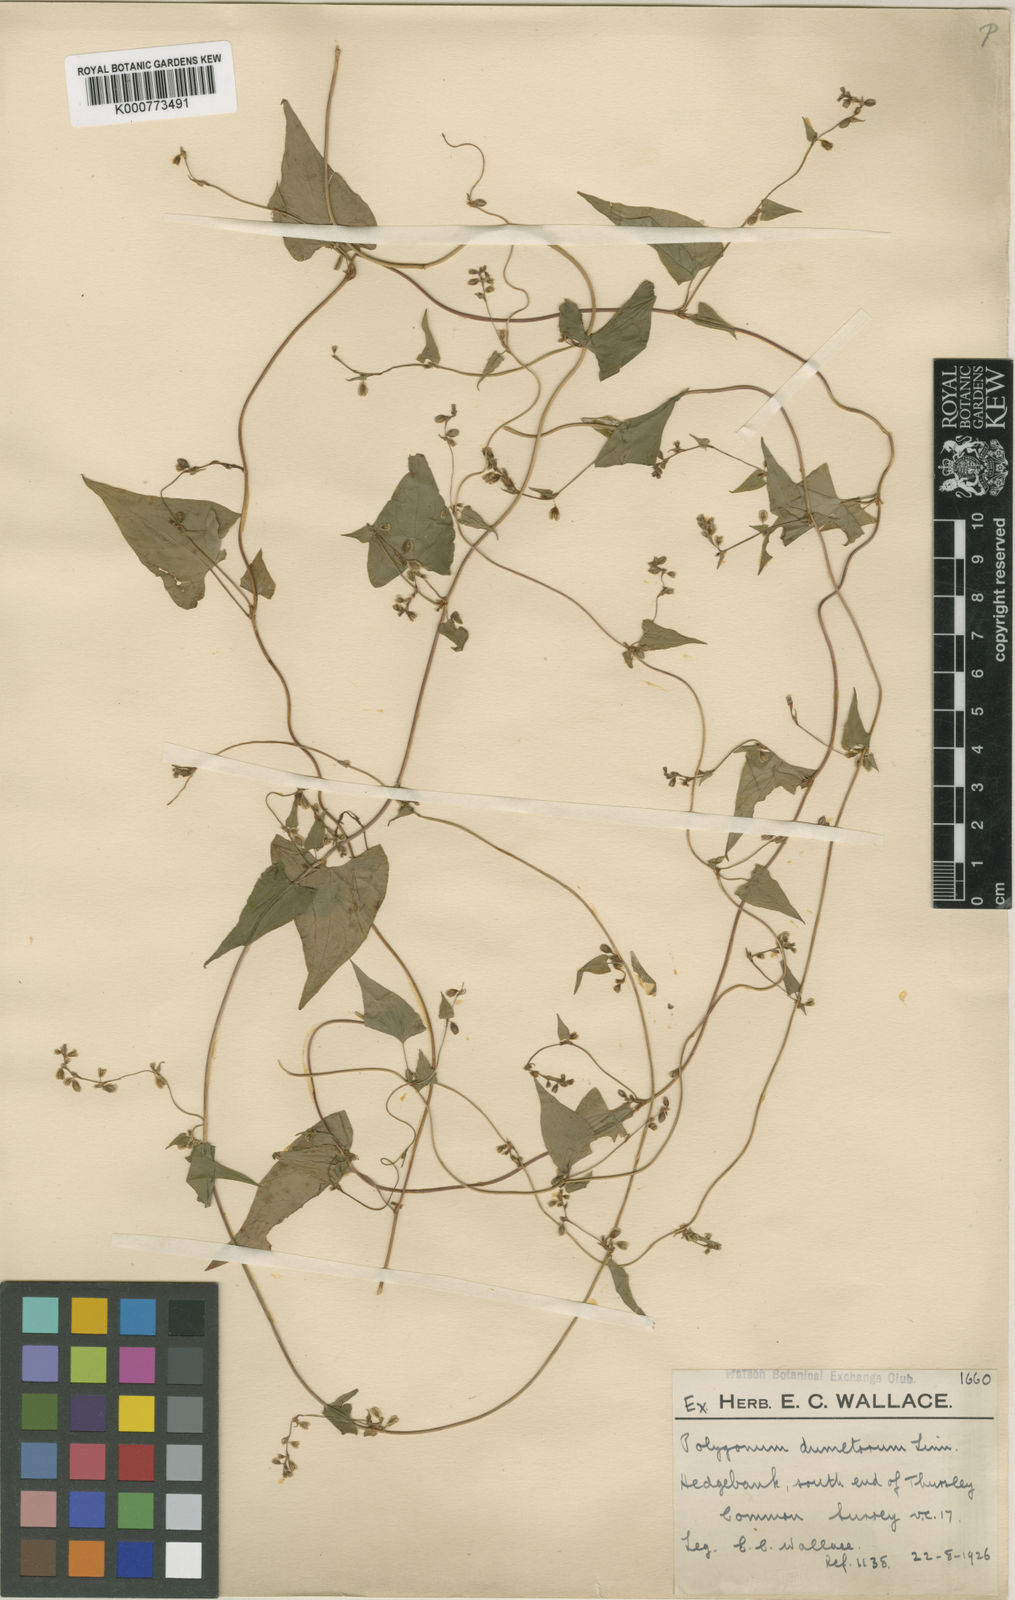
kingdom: Plantae
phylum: Tracheophyta
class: Magnoliopsida
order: Caryophyllales
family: Polygonaceae
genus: Fallopia
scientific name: Fallopia dumetorum
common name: Copse-bindweed
